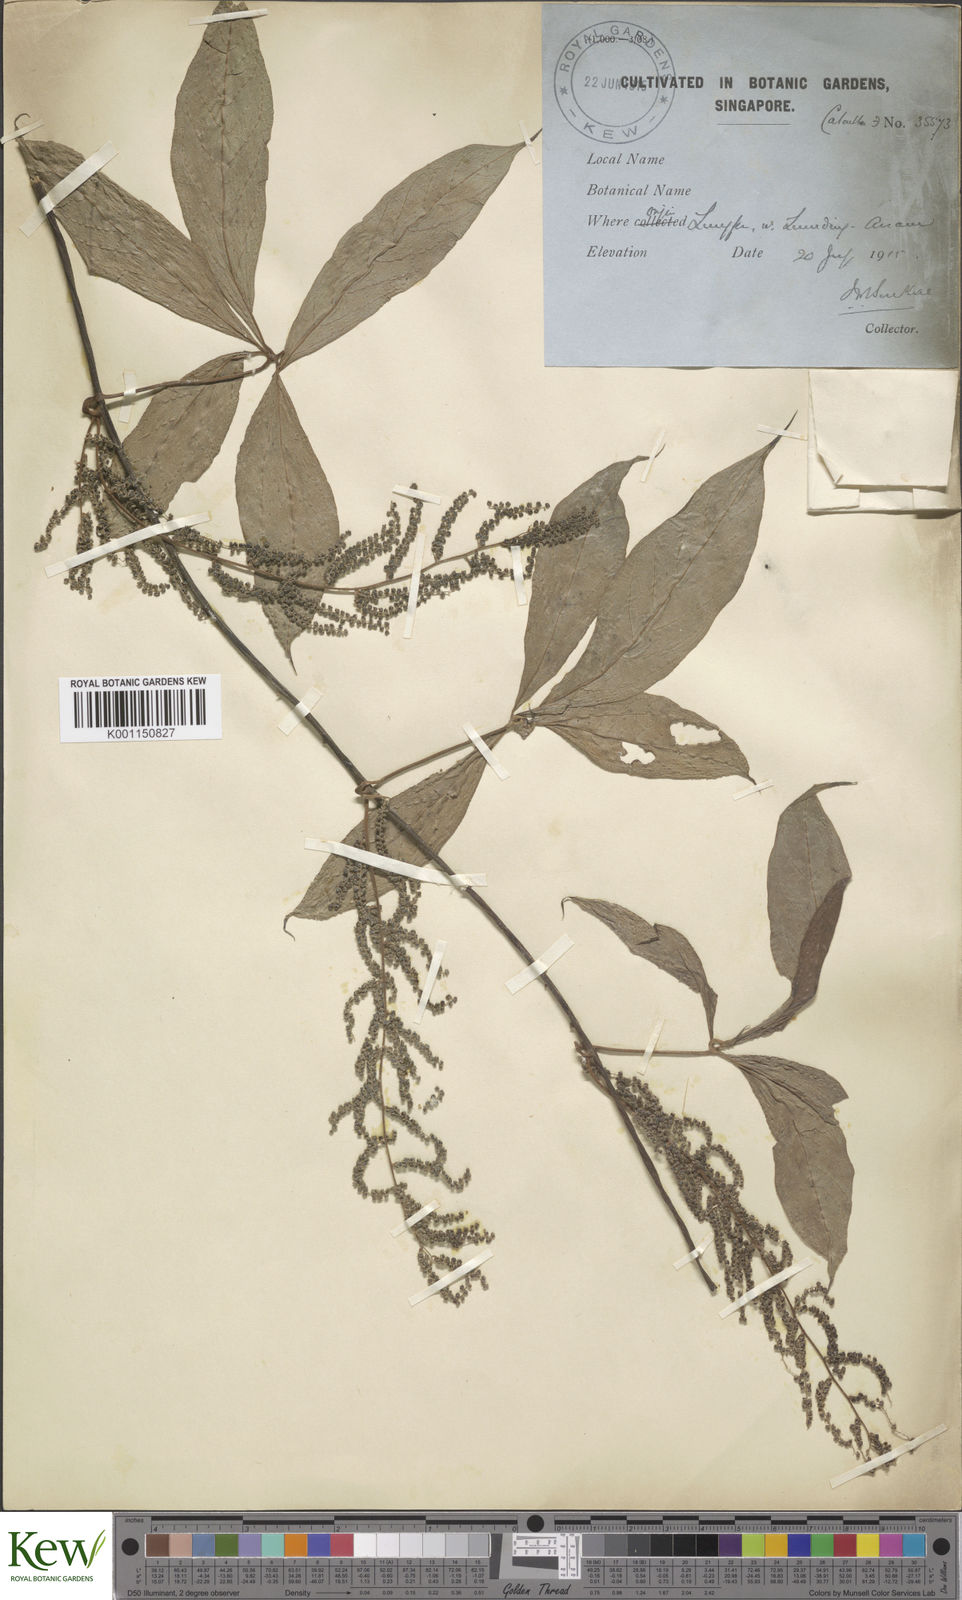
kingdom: Plantae
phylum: Tracheophyta
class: Liliopsida
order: Dioscoreales
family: Dioscoreaceae
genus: Dioscorea
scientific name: Dioscorea pentaphylla
